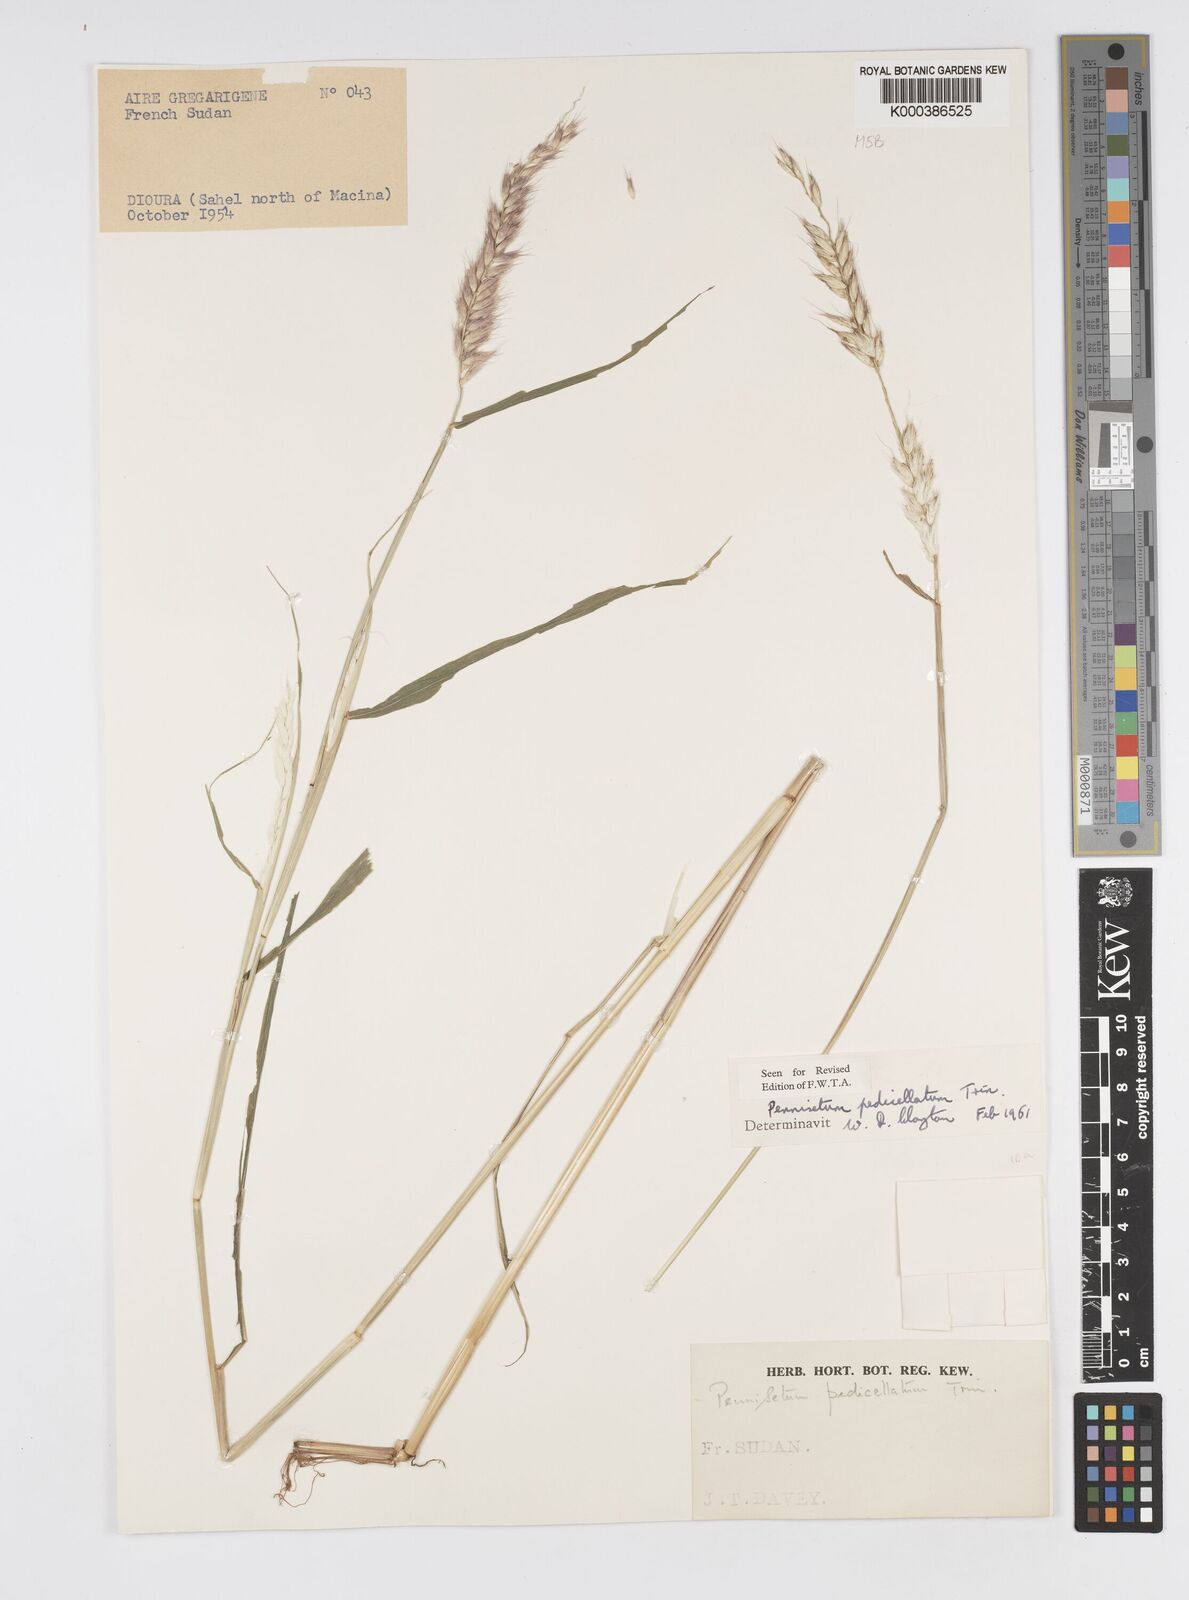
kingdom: Plantae
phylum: Tracheophyta
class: Liliopsida
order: Poales
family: Poaceae
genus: Cenchrus
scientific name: Cenchrus pedicellatus
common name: Hairy fountain grass
